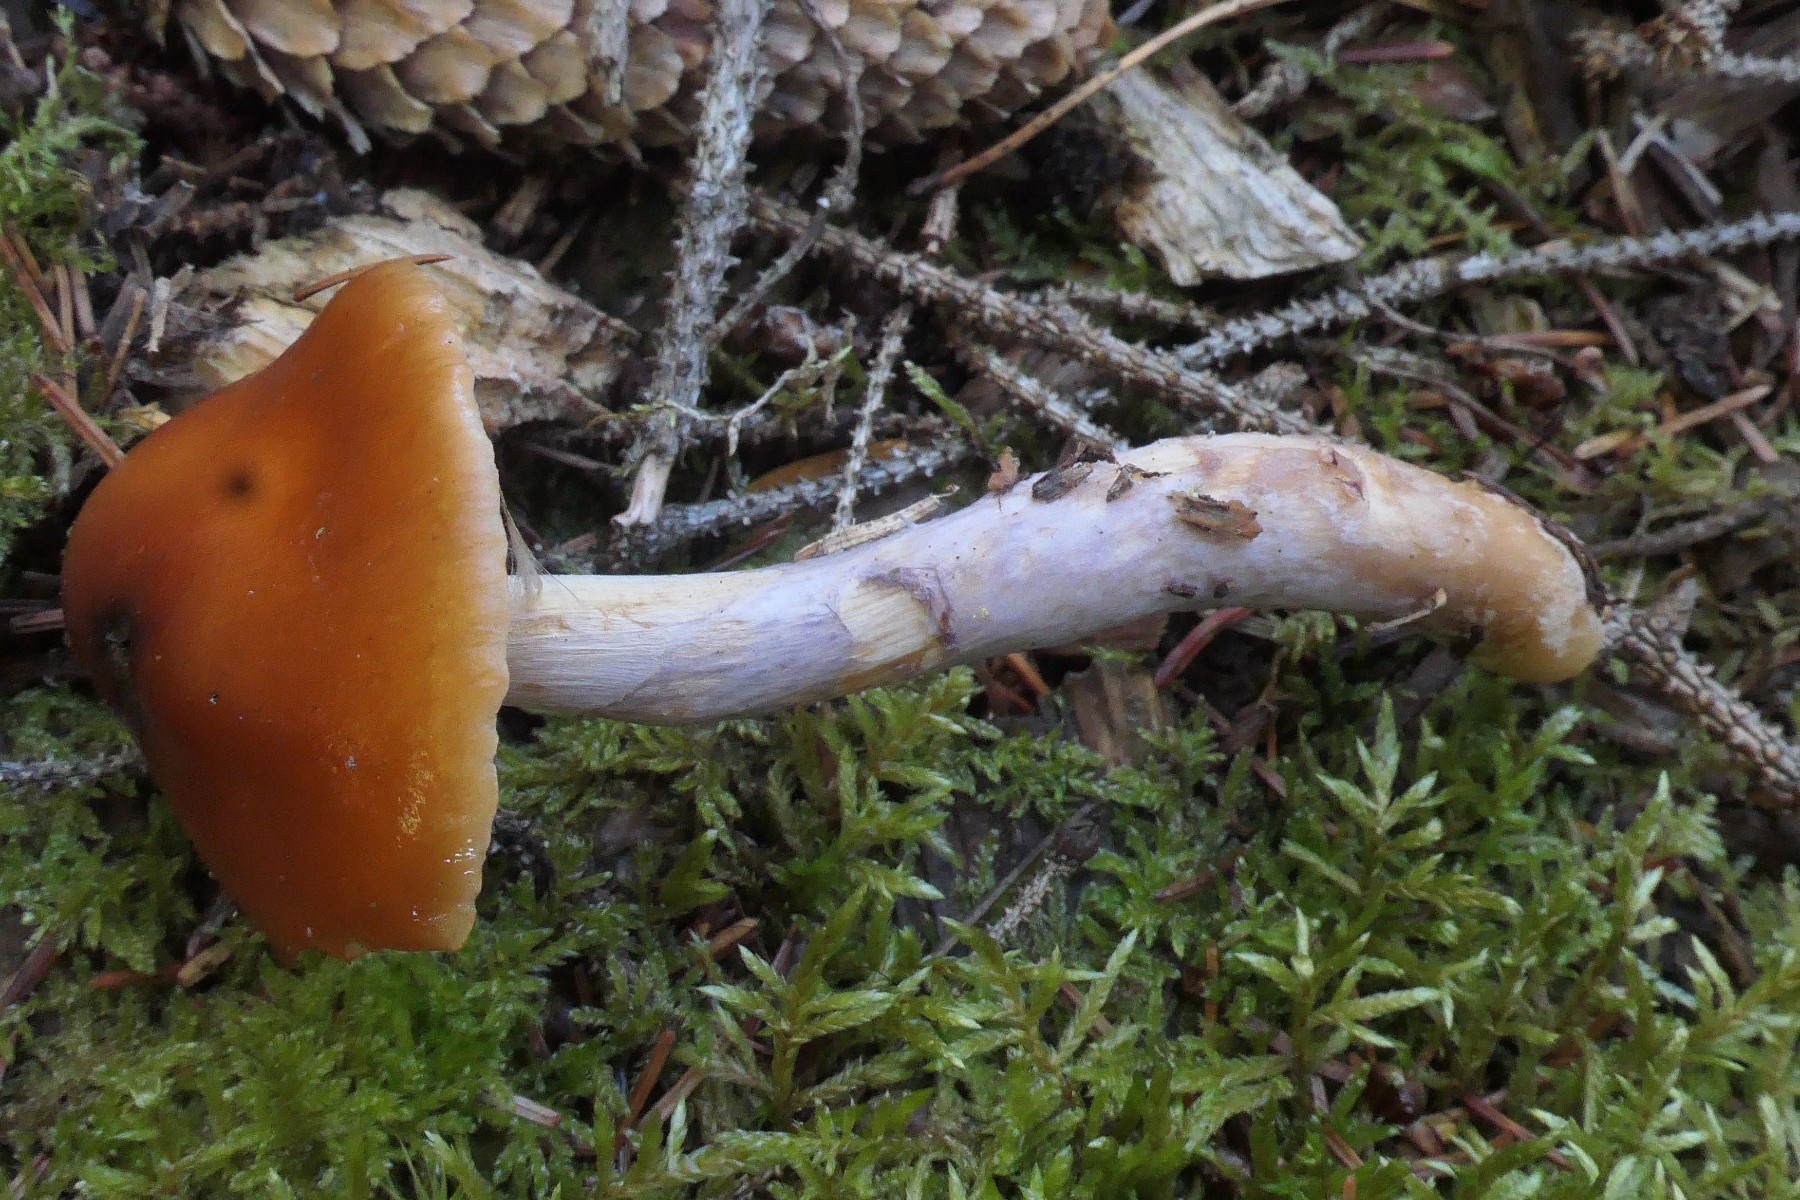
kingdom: Fungi
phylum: Basidiomycota
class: Agaricomycetes
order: Agaricales
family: Cortinariaceae
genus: Cortinarius
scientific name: Cortinarius collinitus
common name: spættet slørhat
